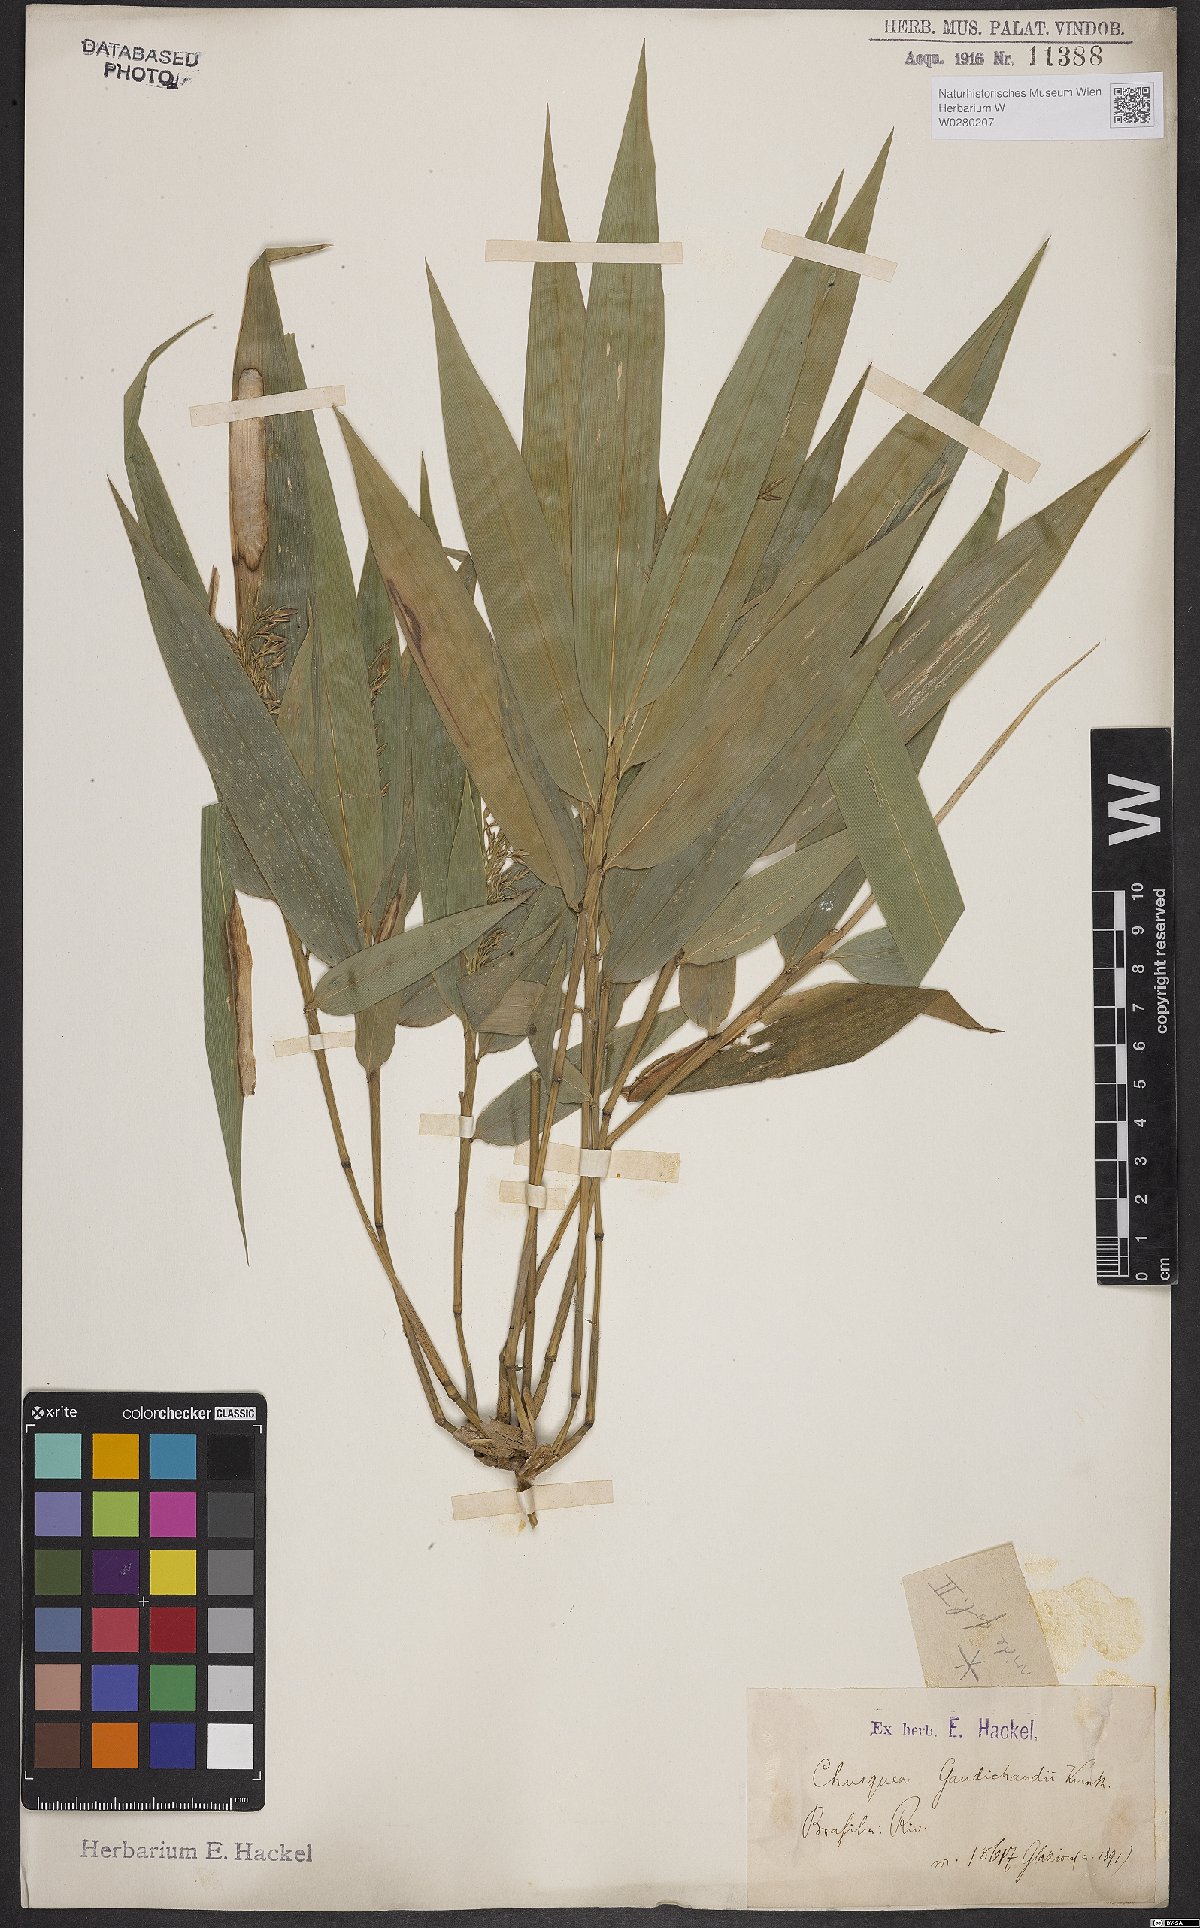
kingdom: Plantae
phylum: Tracheophyta
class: Liliopsida
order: Poales
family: Poaceae
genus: Chusquea
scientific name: Chusquea bambusoides
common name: Brazil scrambling bamboo
